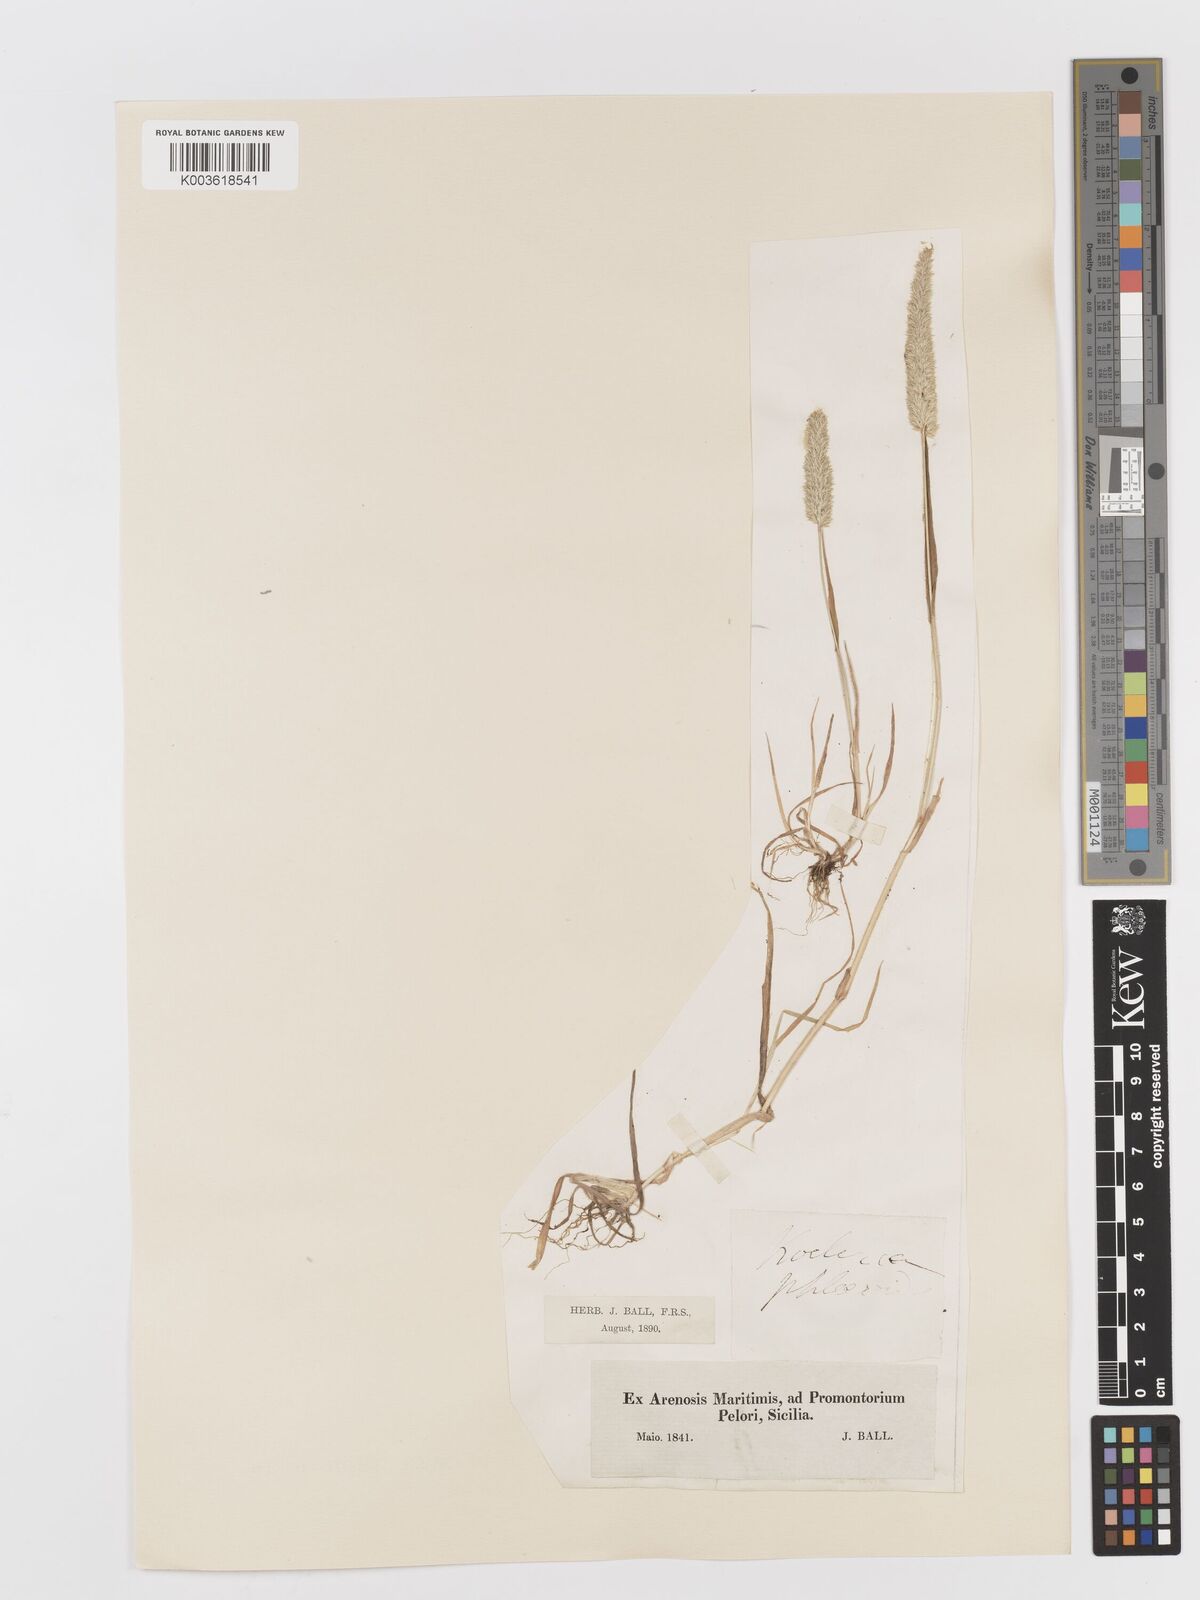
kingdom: Plantae
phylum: Tracheophyta
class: Liliopsida
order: Poales
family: Poaceae
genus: Rostraria
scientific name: Rostraria cristata
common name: Mediterranean hair-grass
